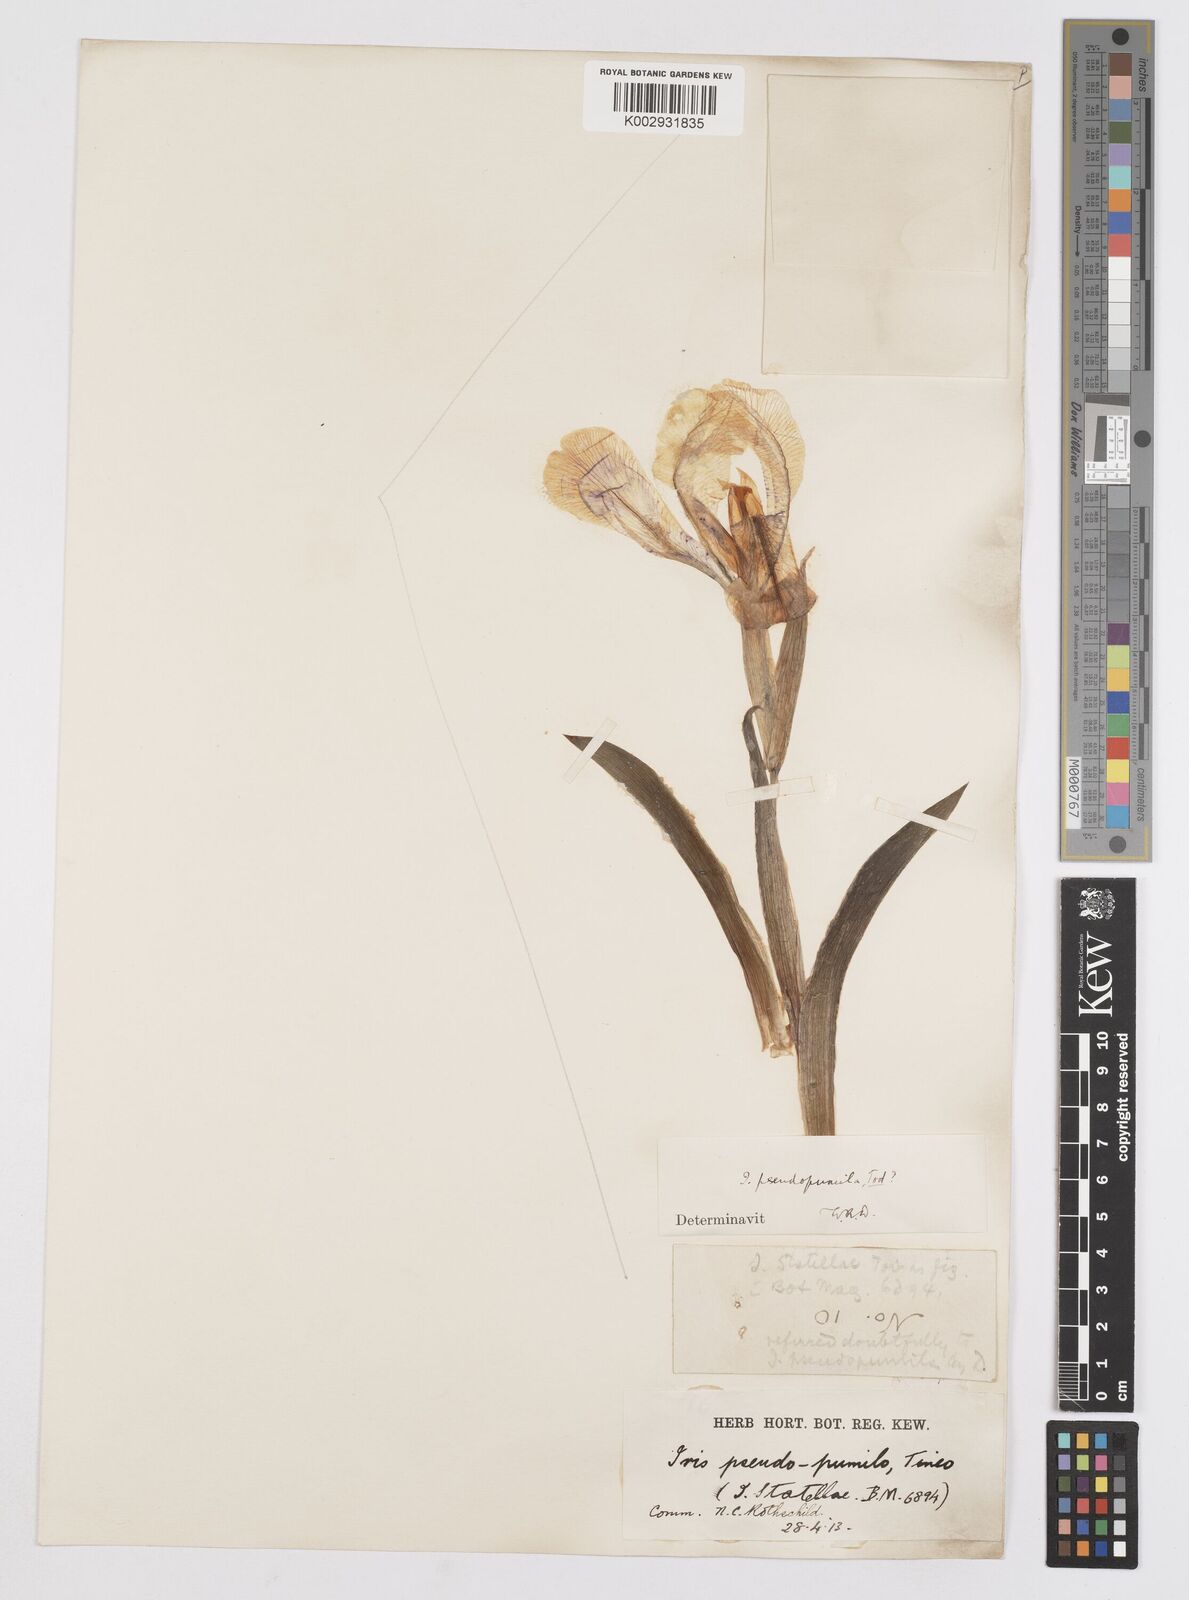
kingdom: Plantae
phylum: Tracheophyta
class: Liliopsida
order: Asparagales
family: Iridaceae
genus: Iris
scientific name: Iris lutescens
